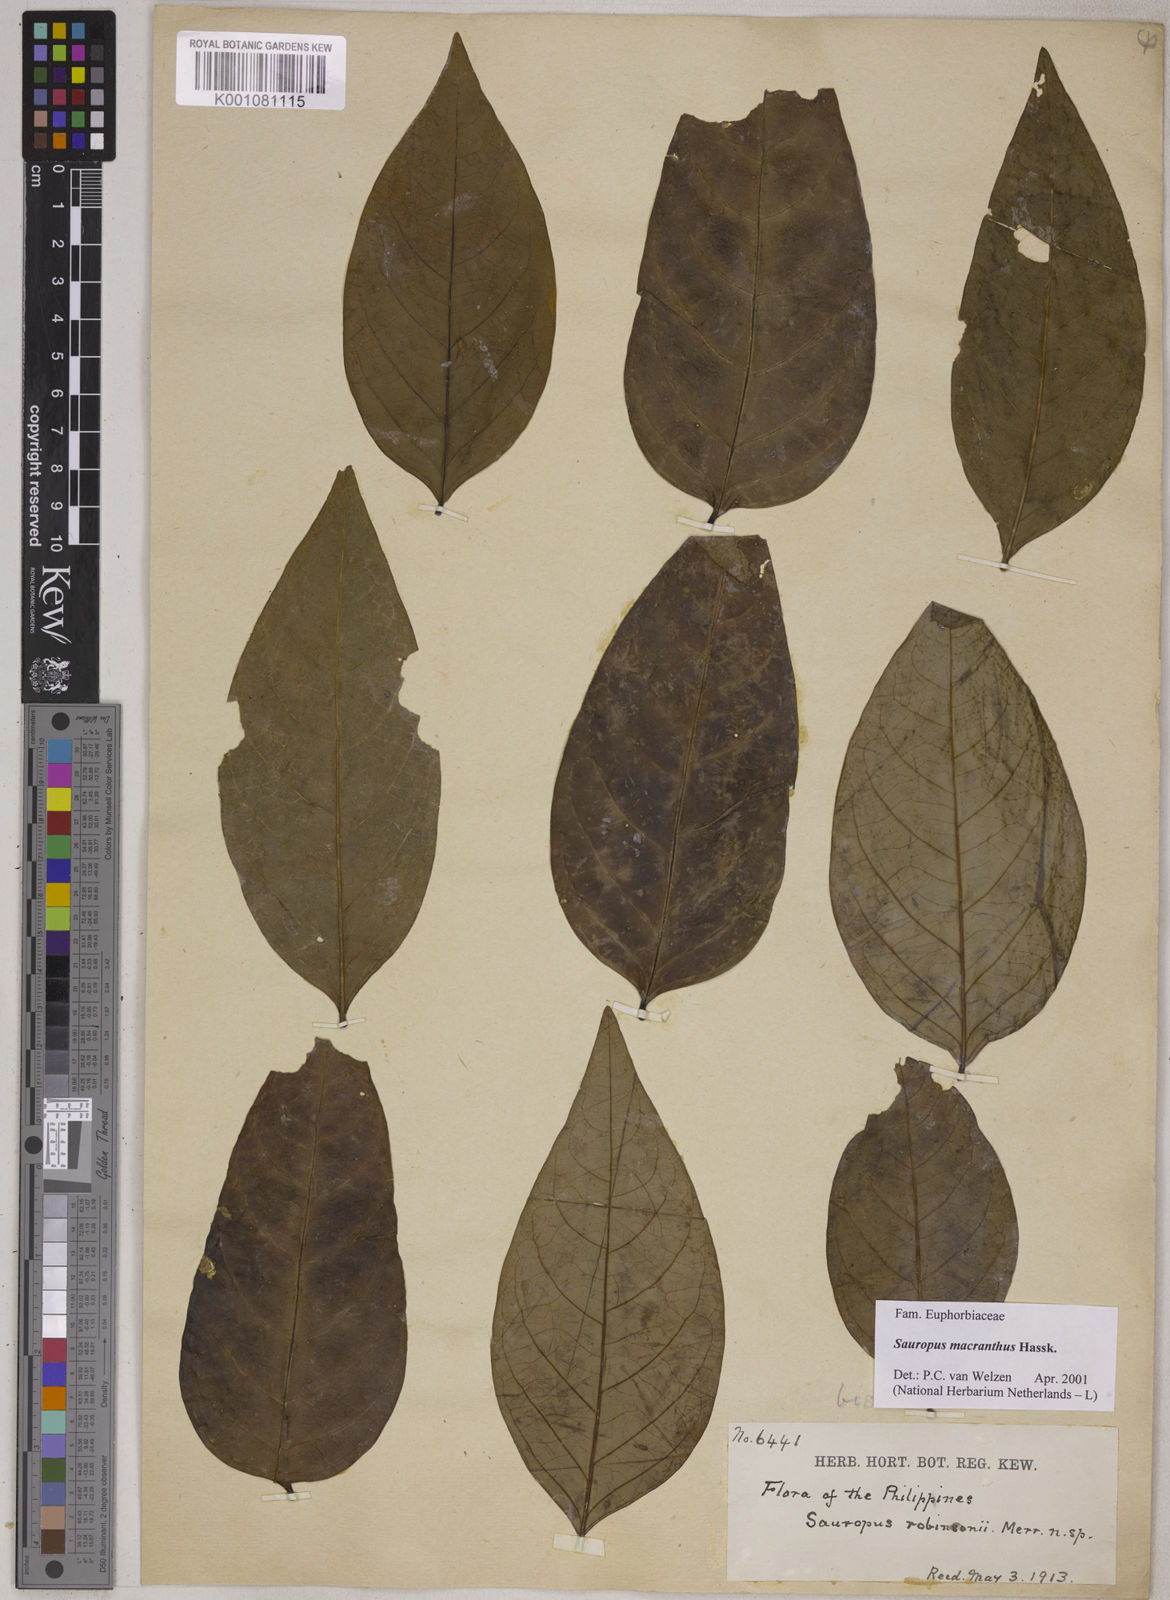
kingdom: Plantae
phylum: Tracheophyta
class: Magnoliopsida
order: Malpighiales
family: Phyllanthaceae
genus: Breynia
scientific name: Breynia macrantha
